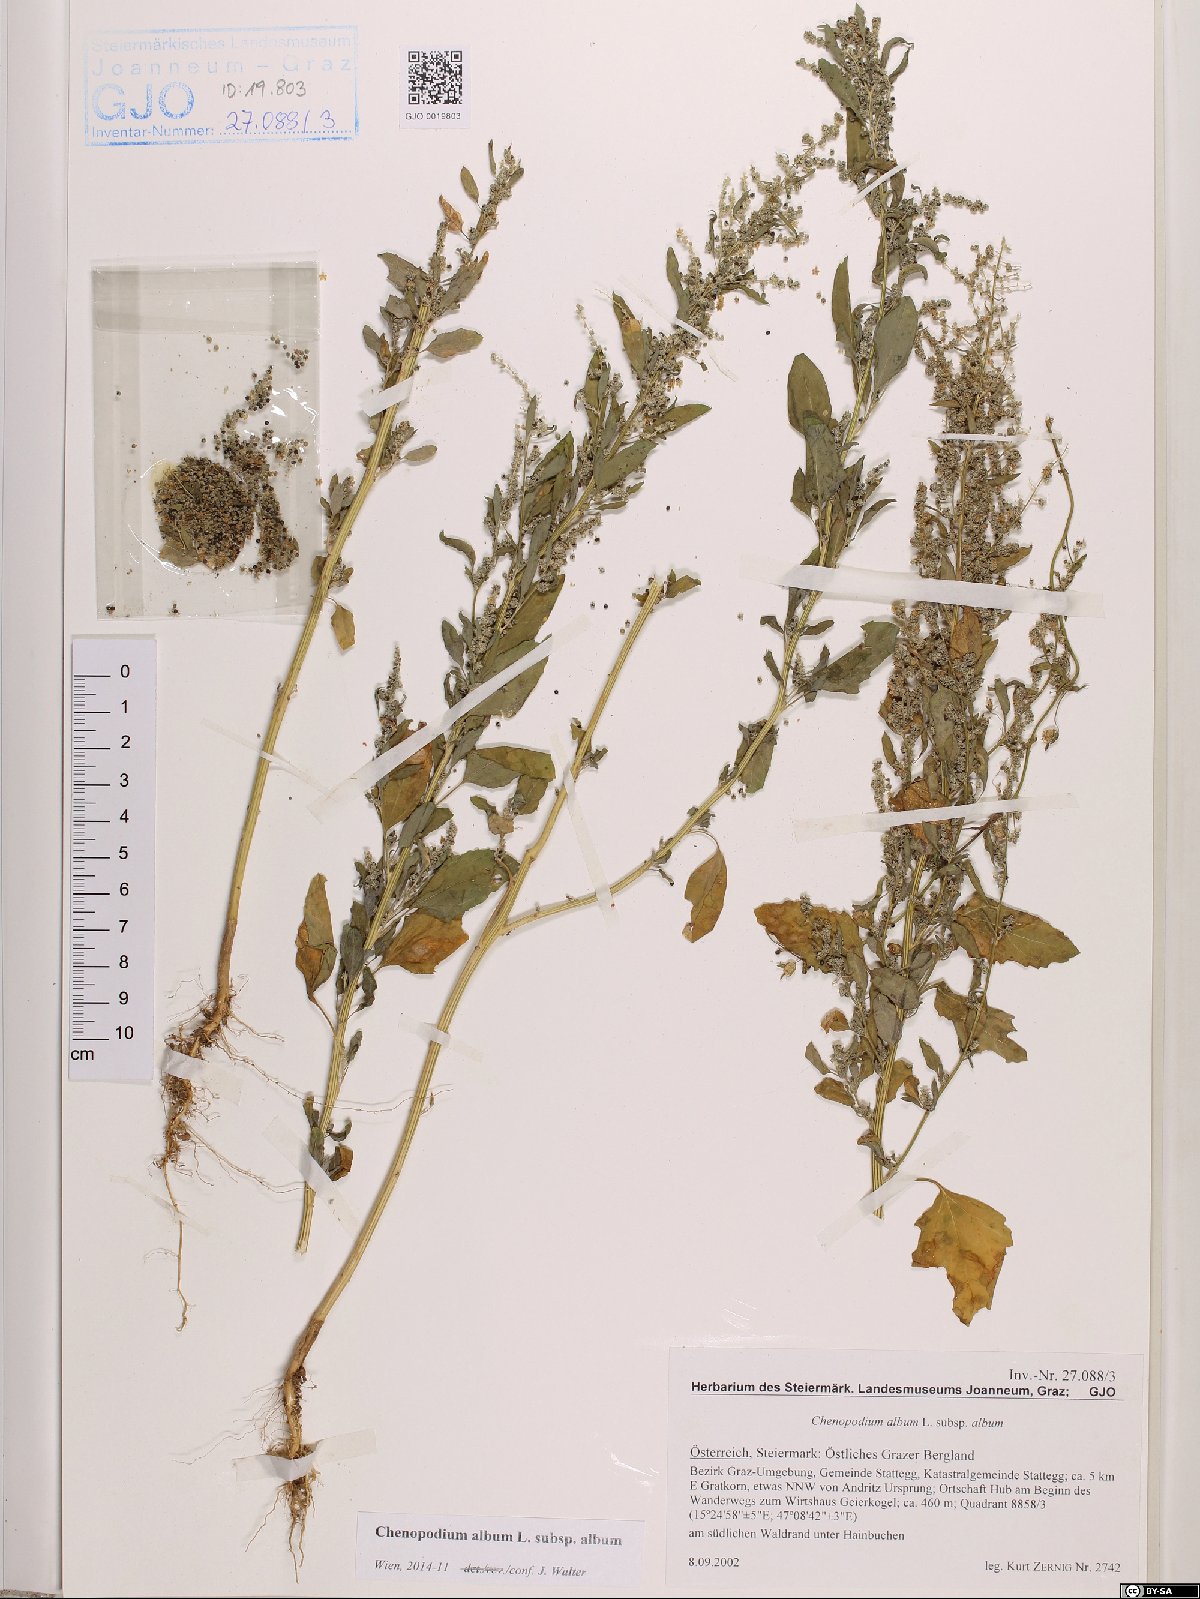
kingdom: Plantae
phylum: Tracheophyta
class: Magnoliopsida
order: Caryophyllales
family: Amaranthaceae
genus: Chenopodium
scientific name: Chenopodium album
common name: Fat-hen
